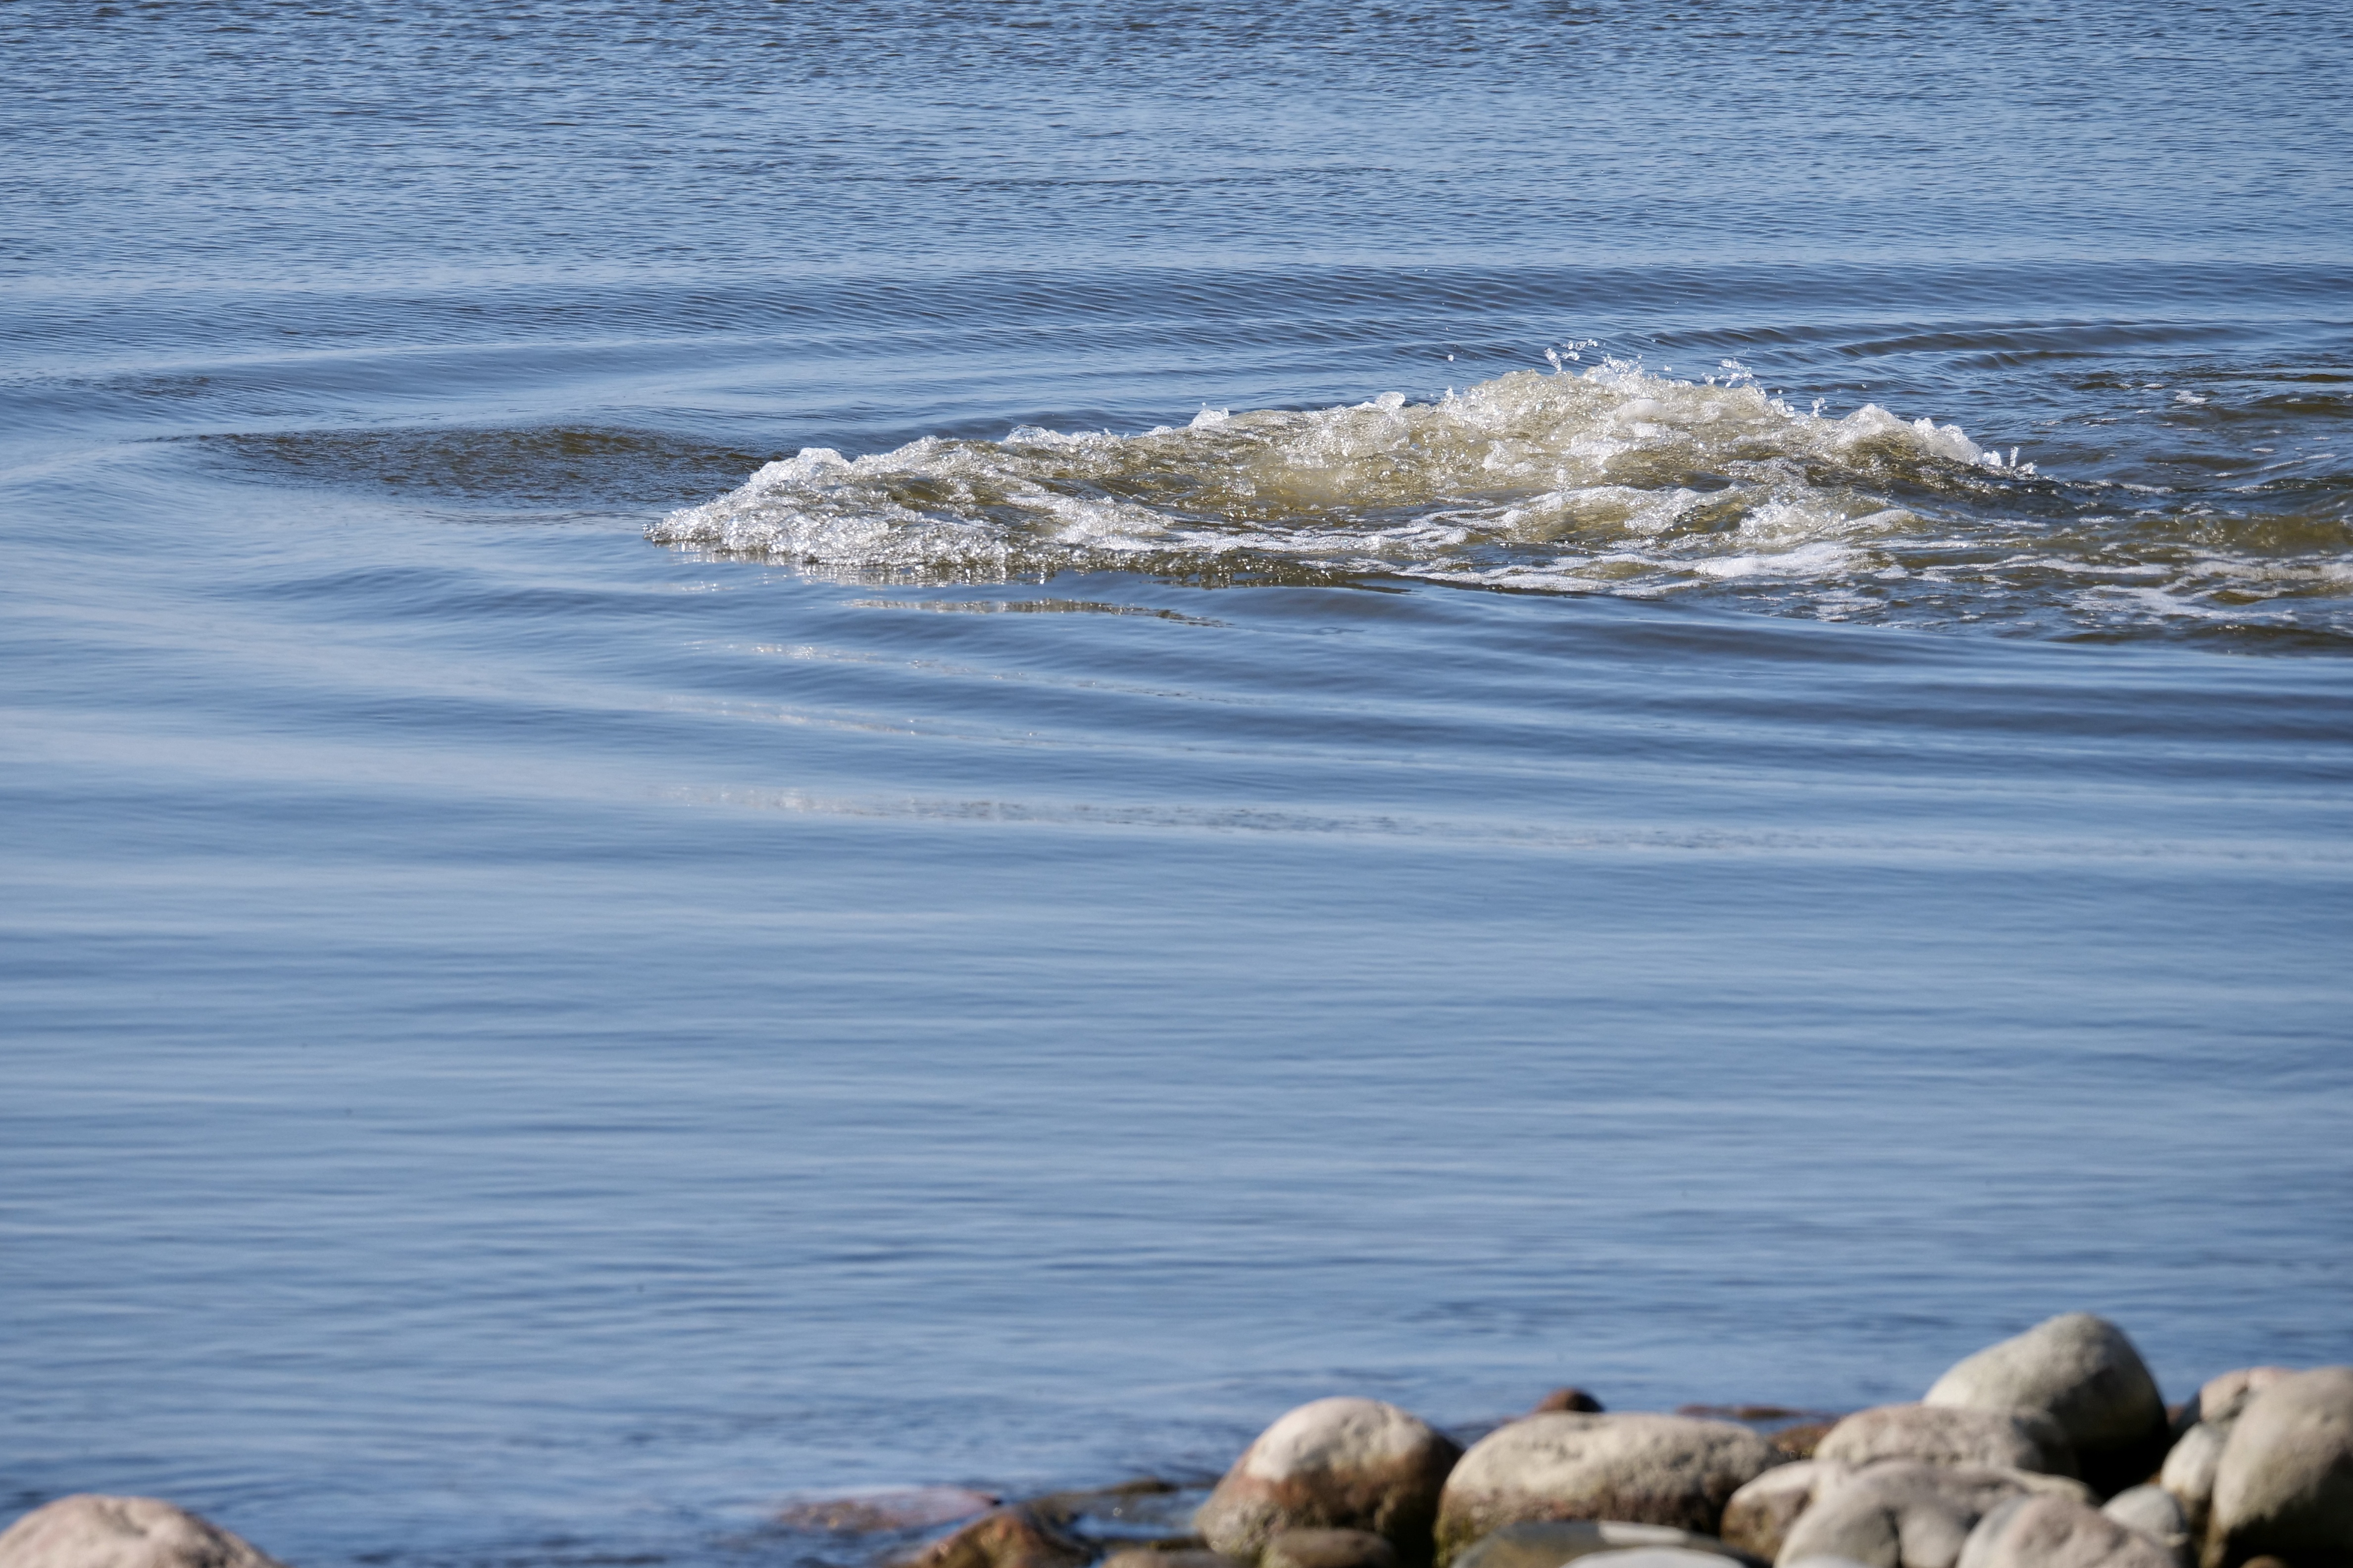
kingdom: Animalia
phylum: Chordata
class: Mammalia
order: Carnivora
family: Phocidae
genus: Halichoerus
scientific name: Halichoerus grypus
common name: Grey seal
